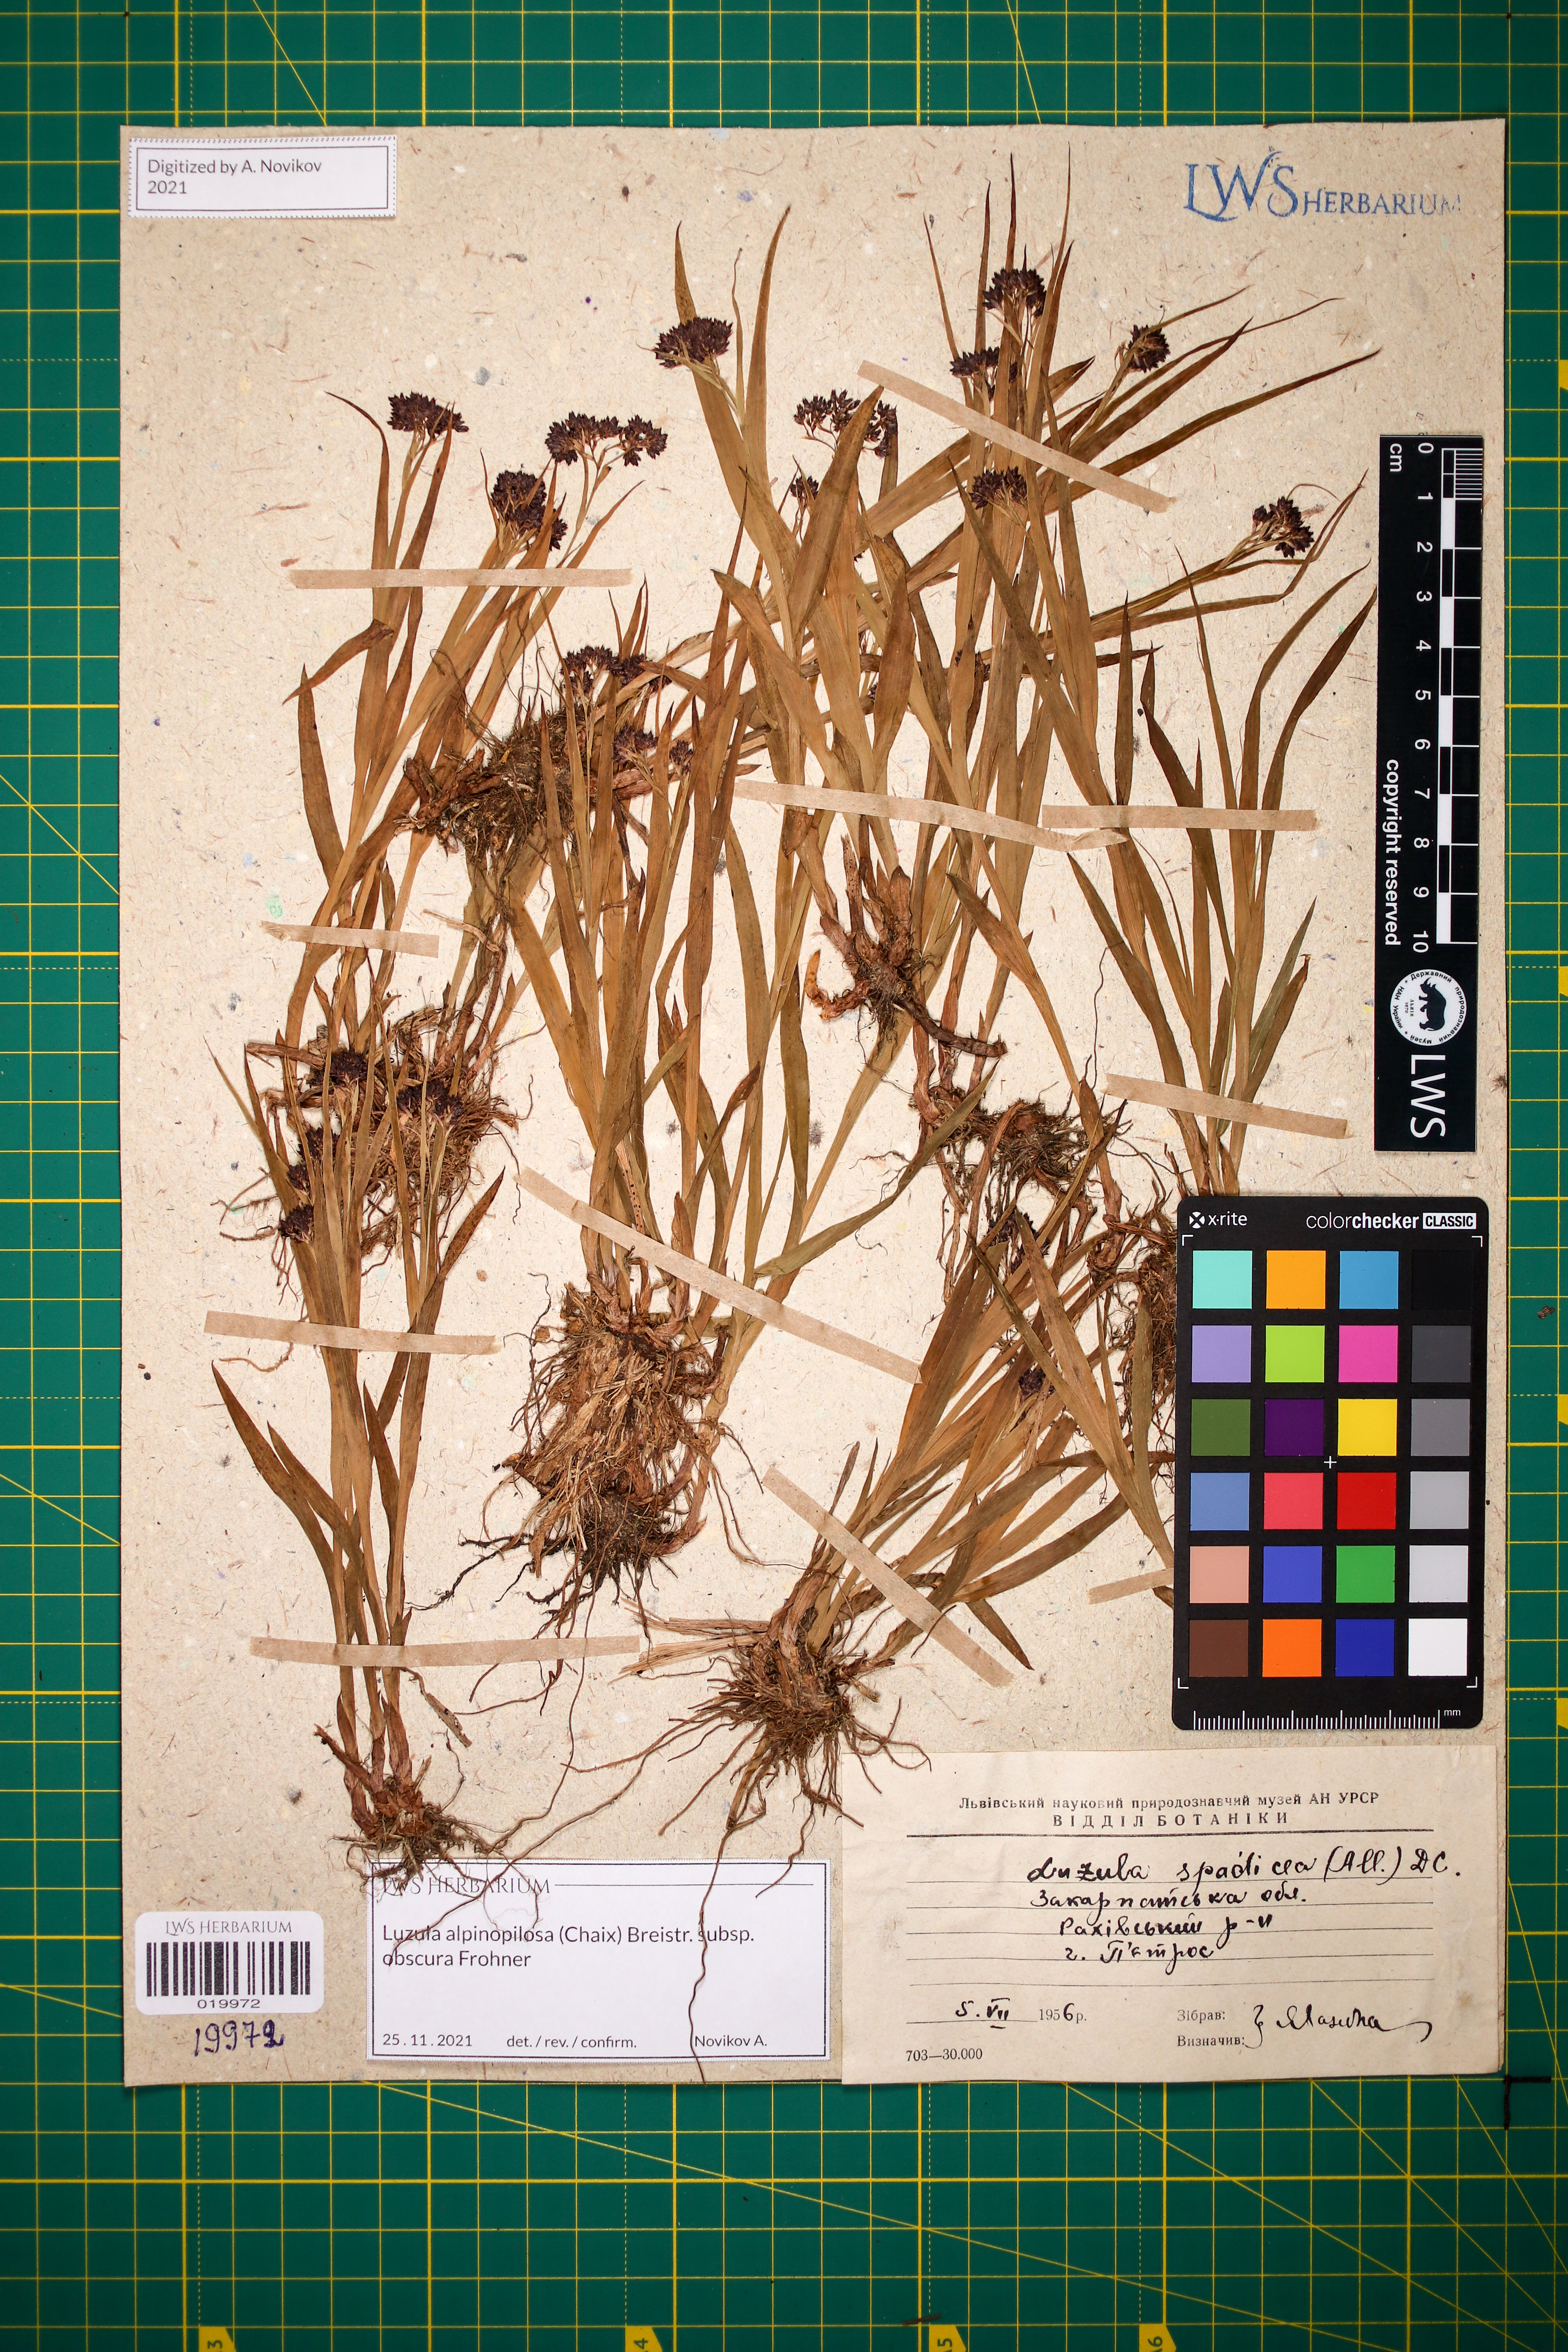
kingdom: Plantae
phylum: Tracheophyta
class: Liliopsida
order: Poales
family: Juncaceae
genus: Luzula
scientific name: Luzula alpinopilosa
